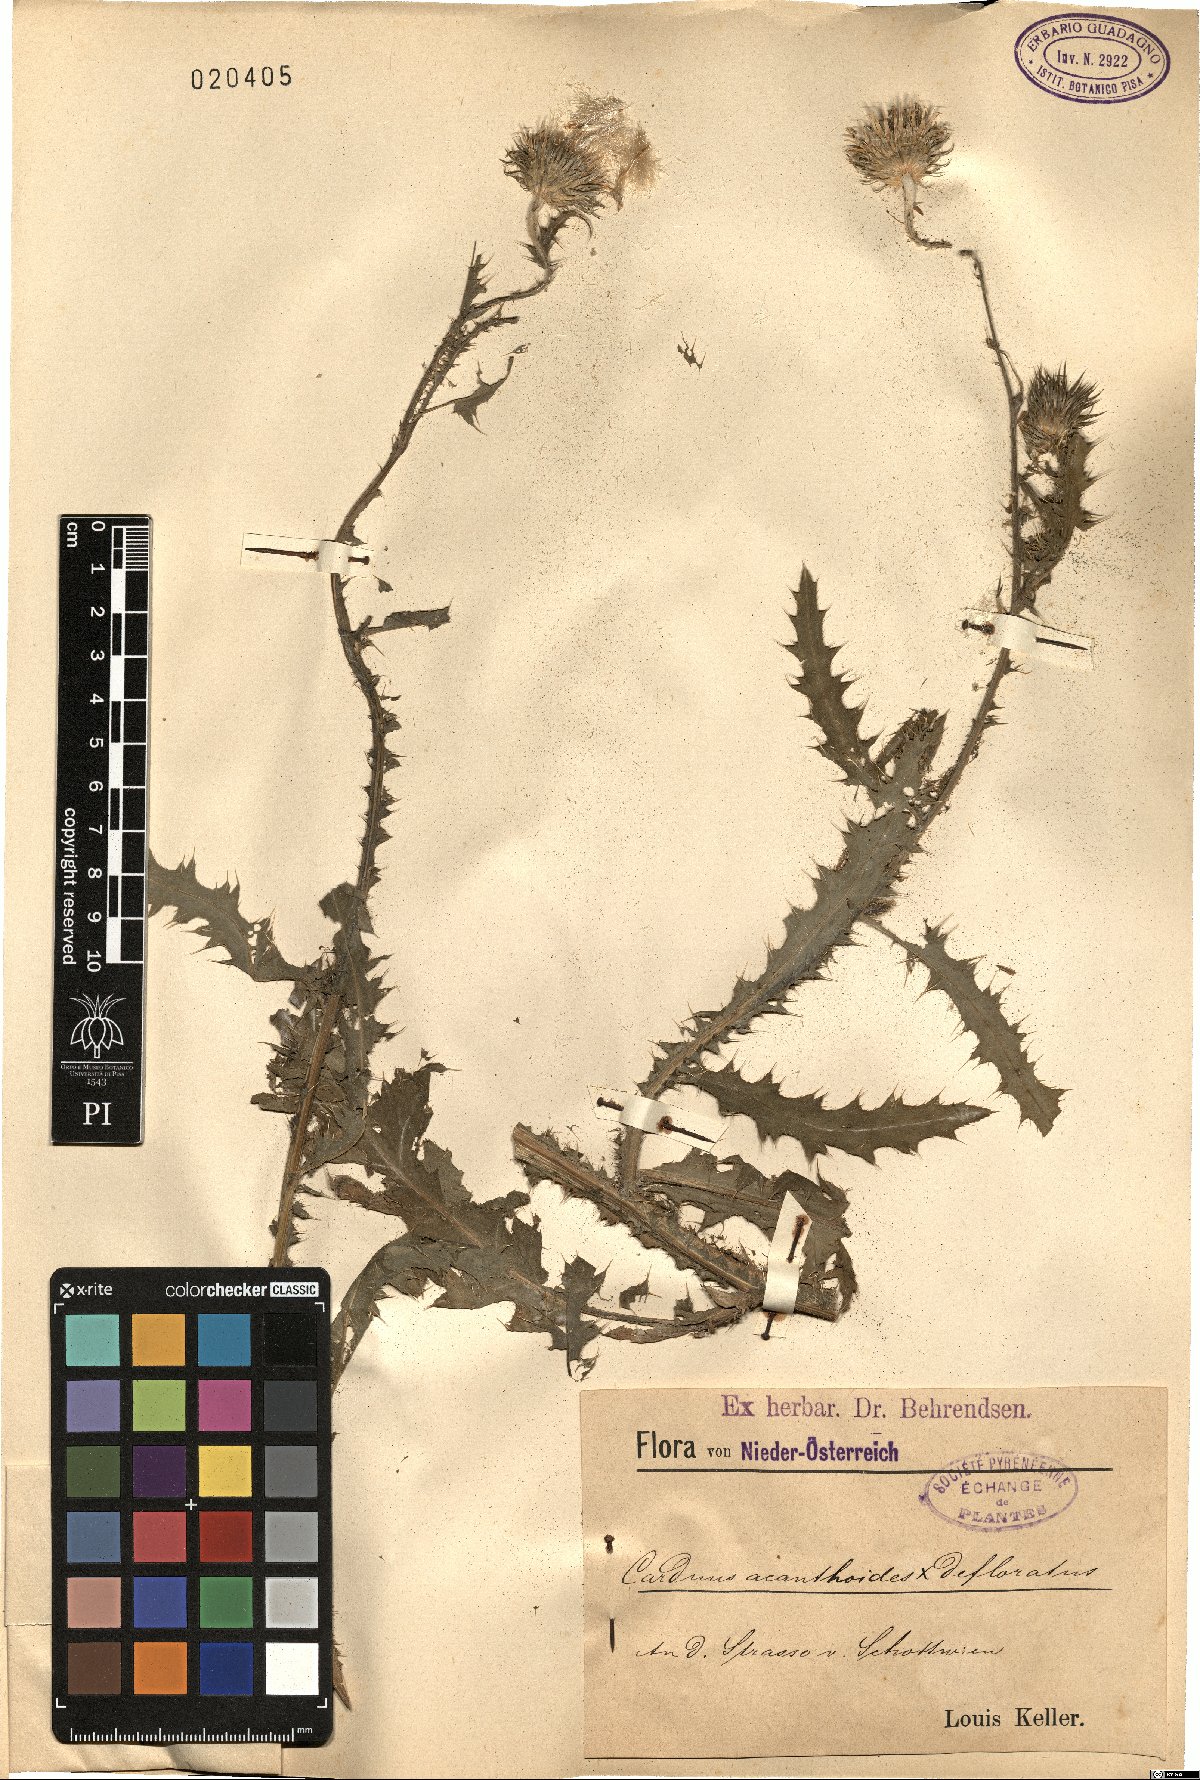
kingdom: Plantae
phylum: Tracheophyta
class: Magnoliopsida
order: Asterales
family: Asteraceae
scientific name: Asteraceae
